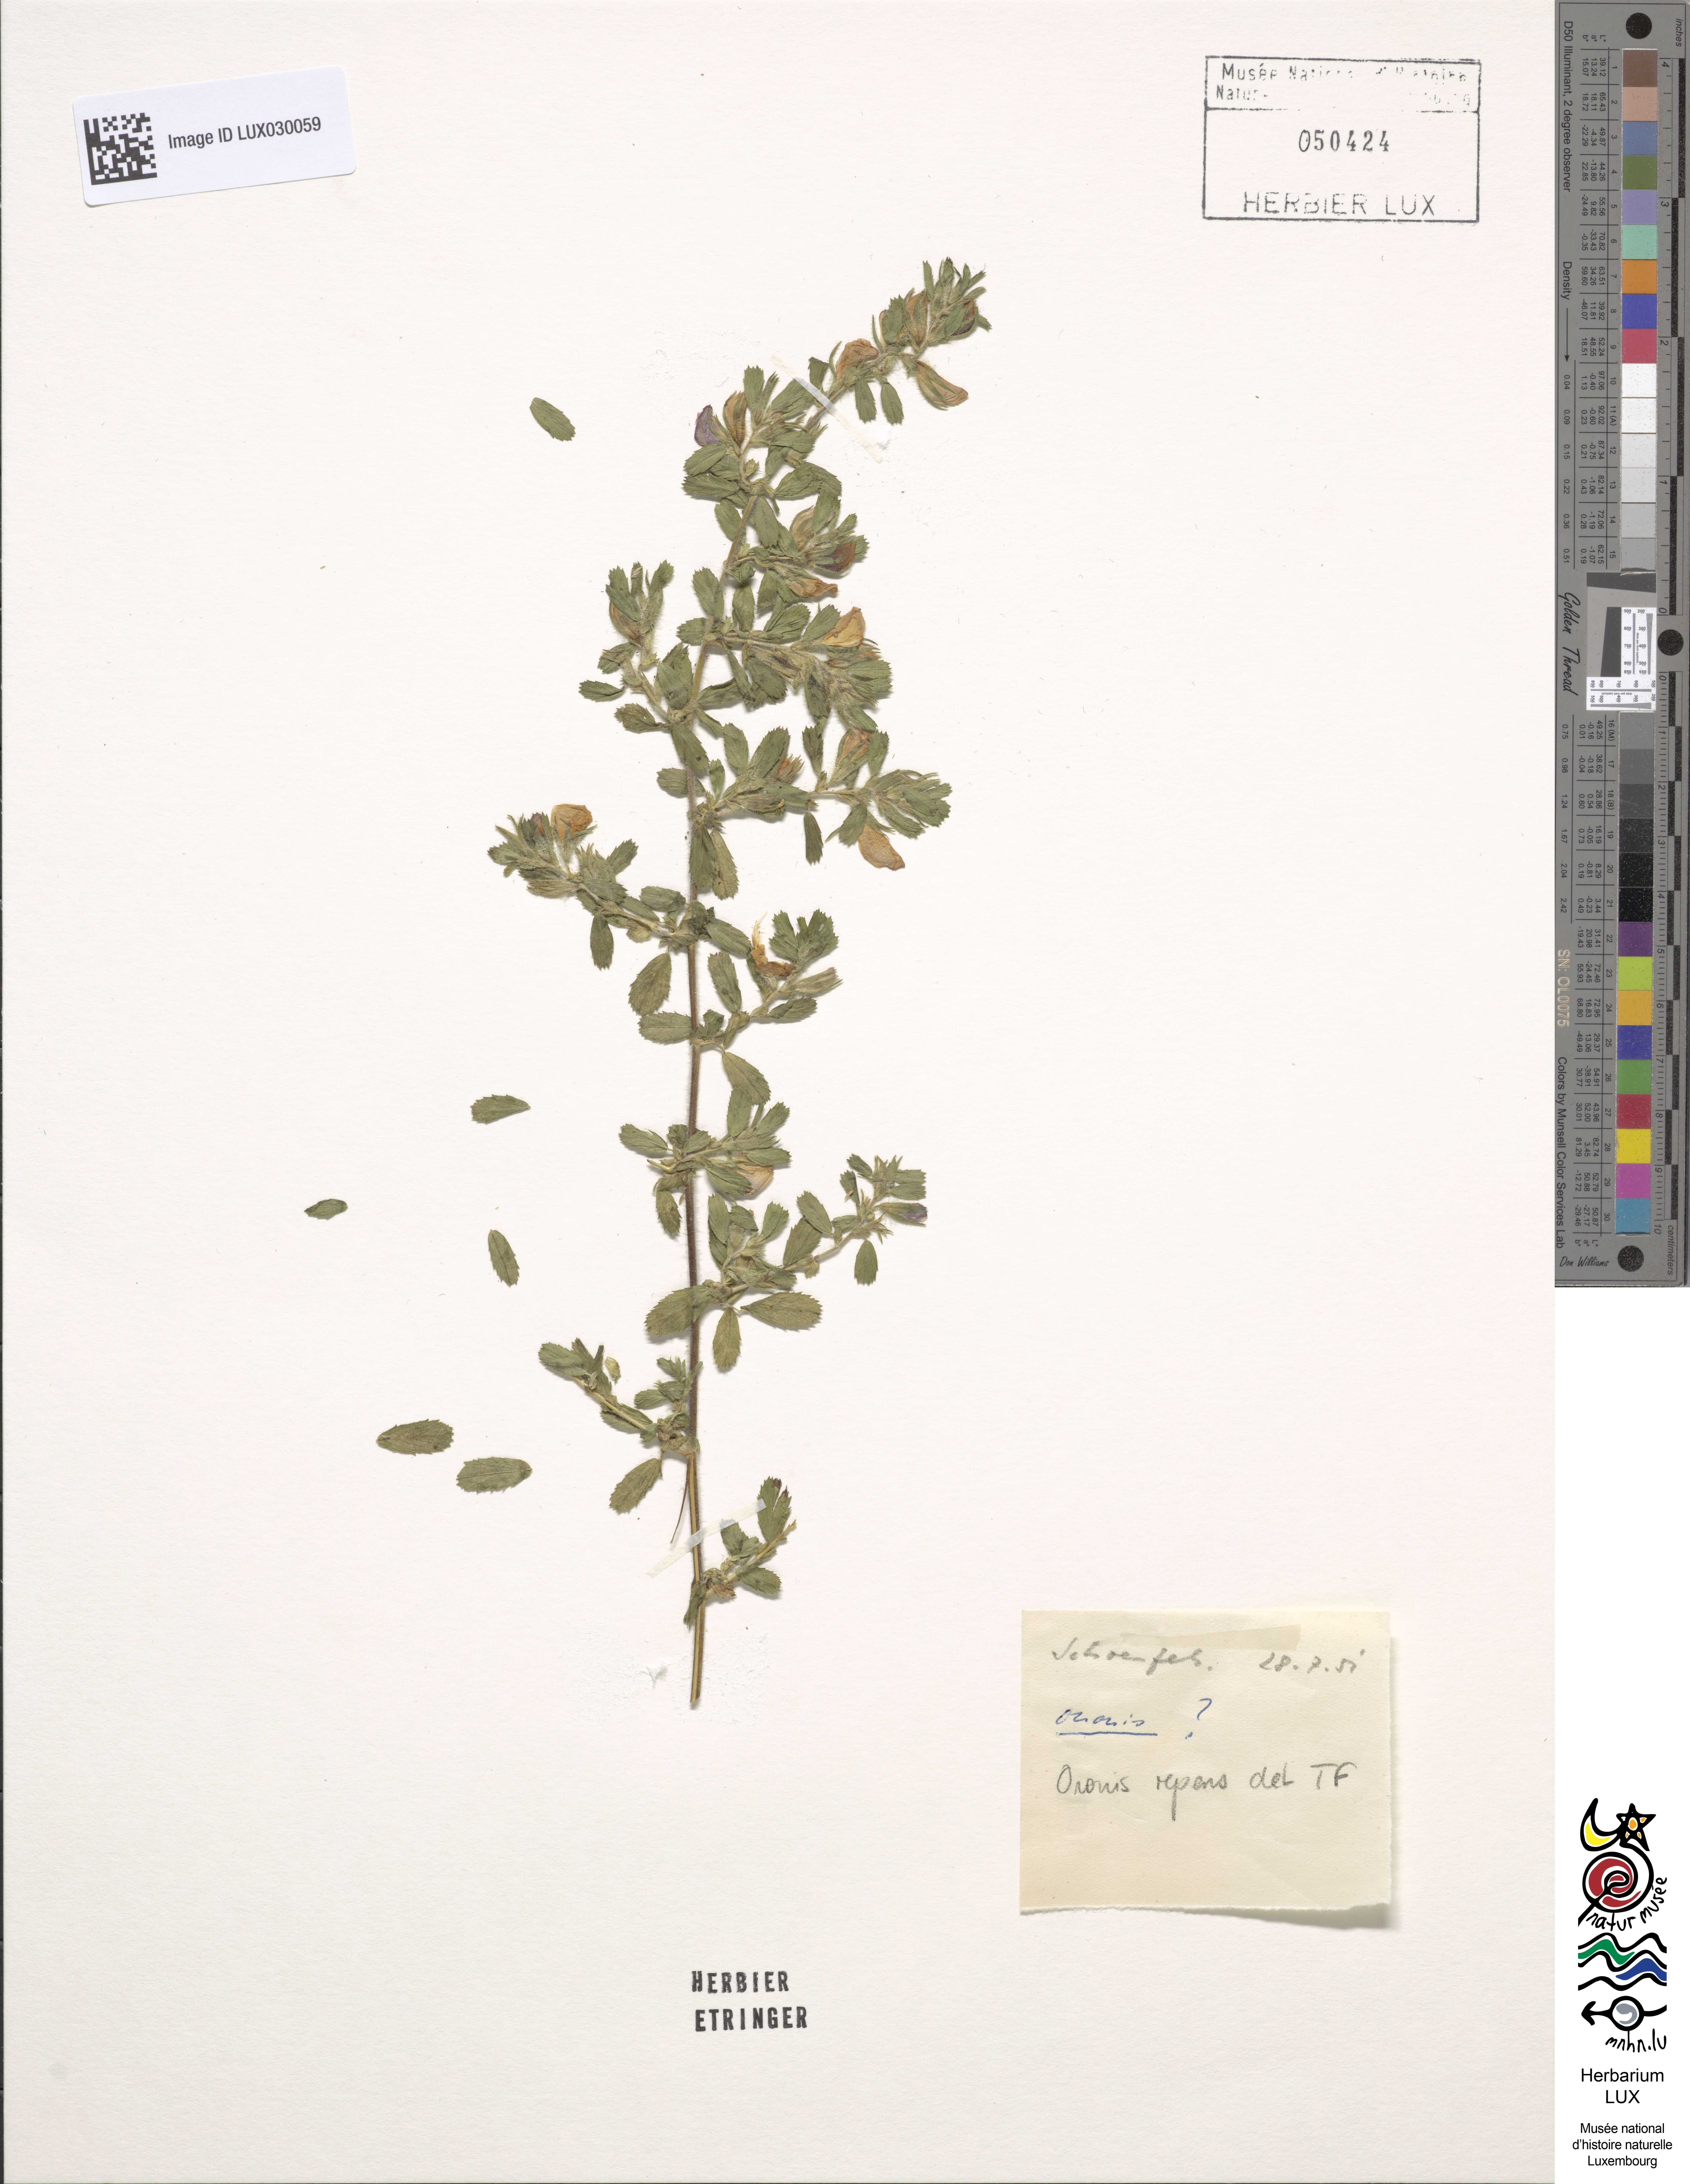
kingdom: Plantae
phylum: Tracheophyta
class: Magnoliopsida
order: Fabales
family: Fabaceae
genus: Ononis
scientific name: Ononis spinosa
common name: Spiny restharrow
